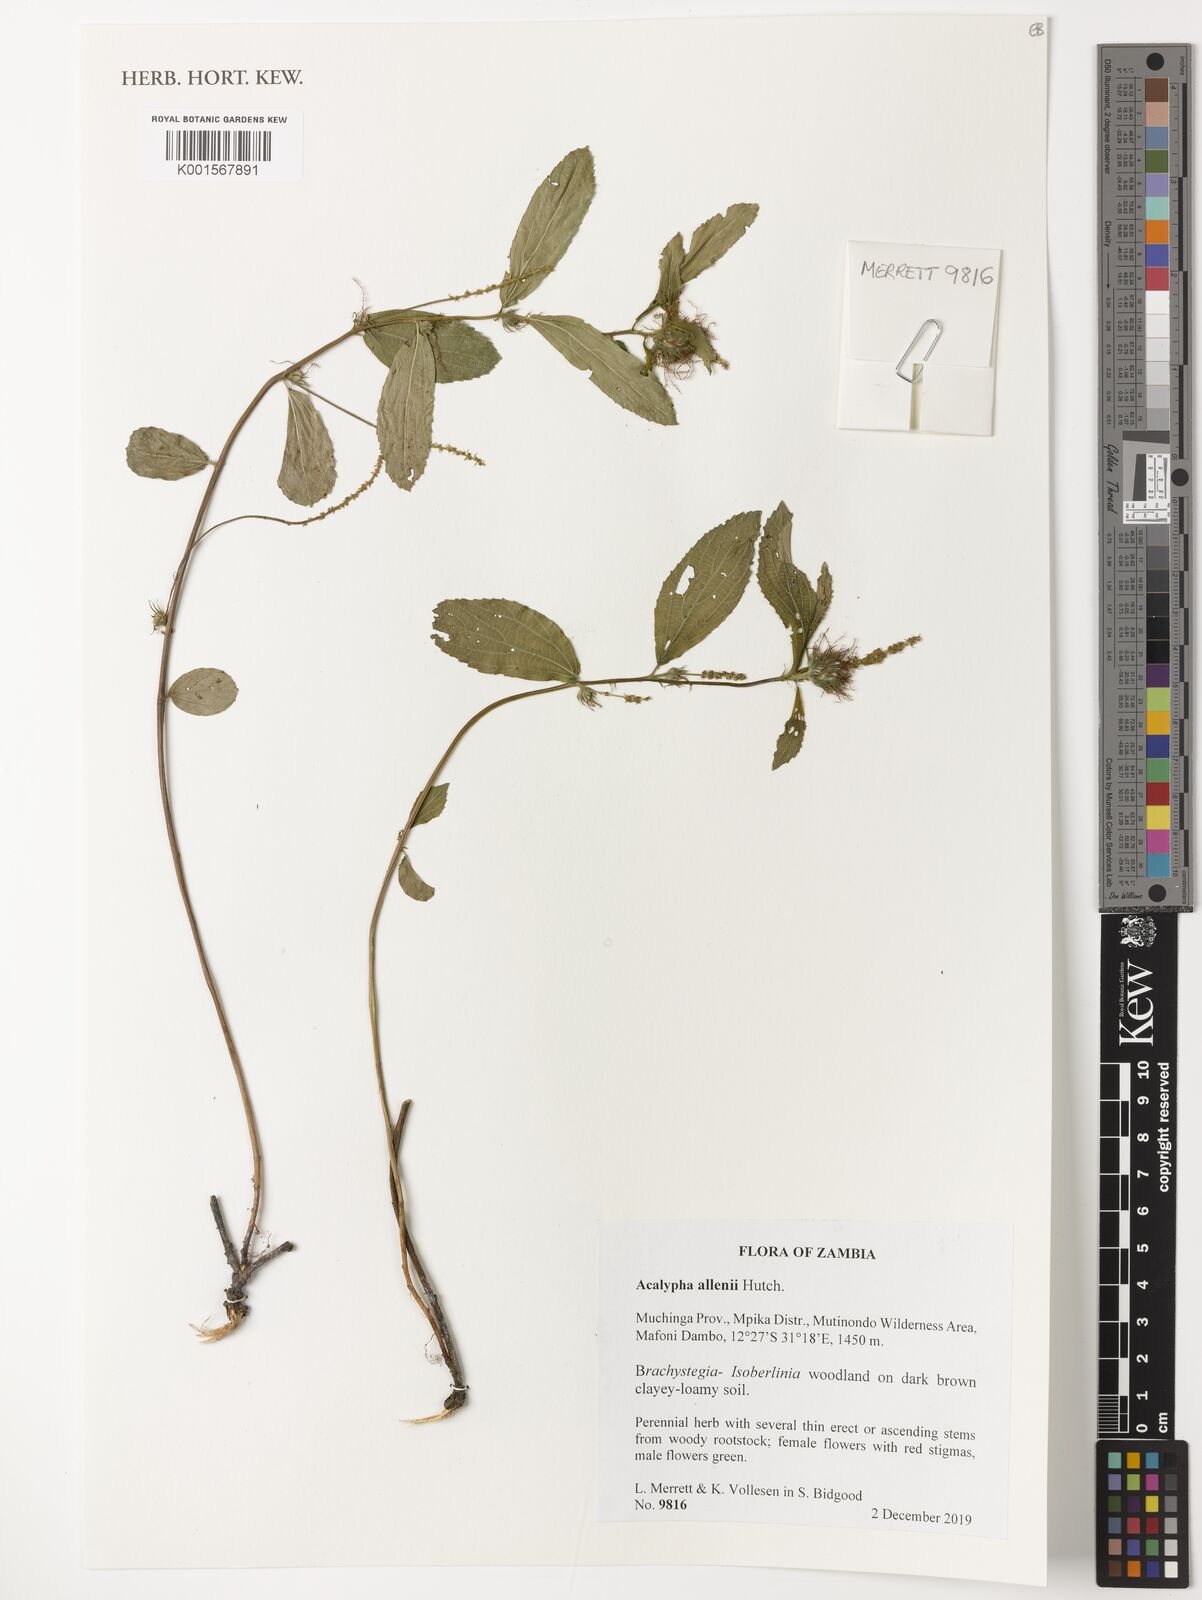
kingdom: Plantae
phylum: Tracheophyta
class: Magnoliopsida
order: Malpighiales
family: Euphorbiaceae
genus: Acalypha
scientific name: Acalypha allenii
